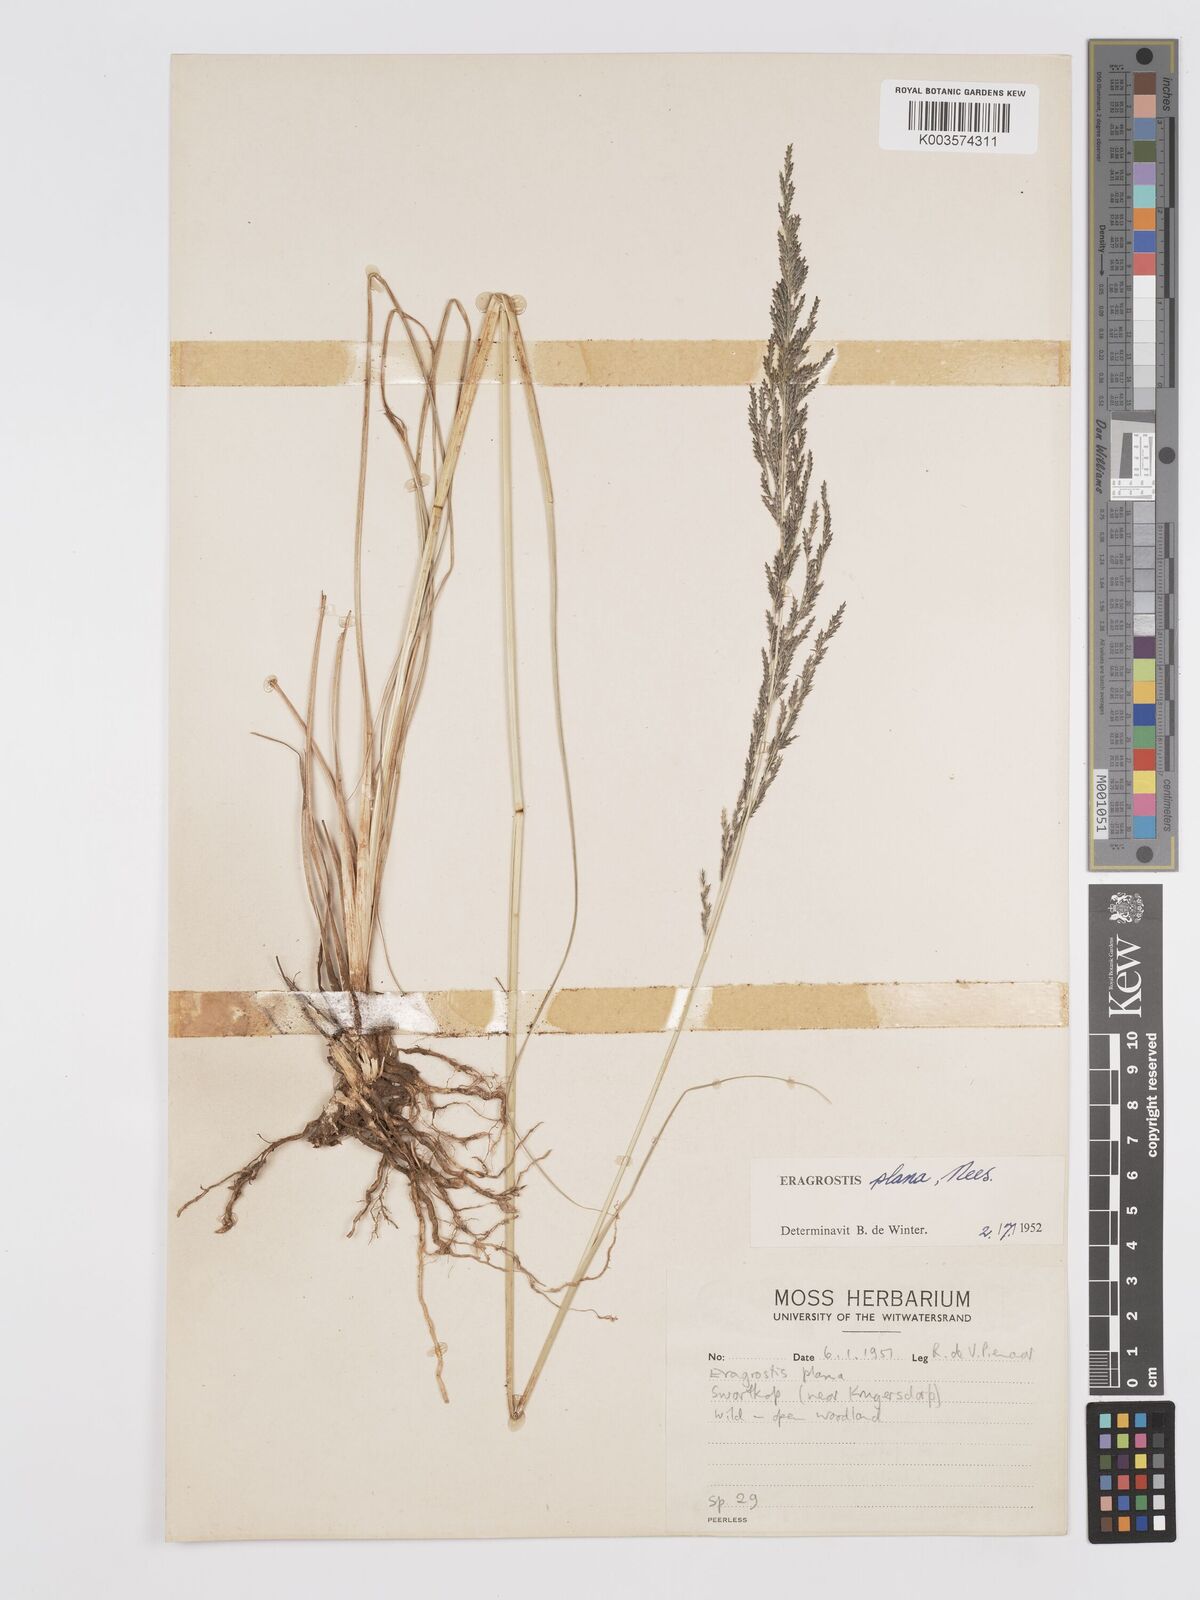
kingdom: Plantae
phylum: Tracheophyta
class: Liliopsida
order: Poales
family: Poaceae
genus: Eragrostis
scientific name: Eragrostis plana
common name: South african lovegrass
